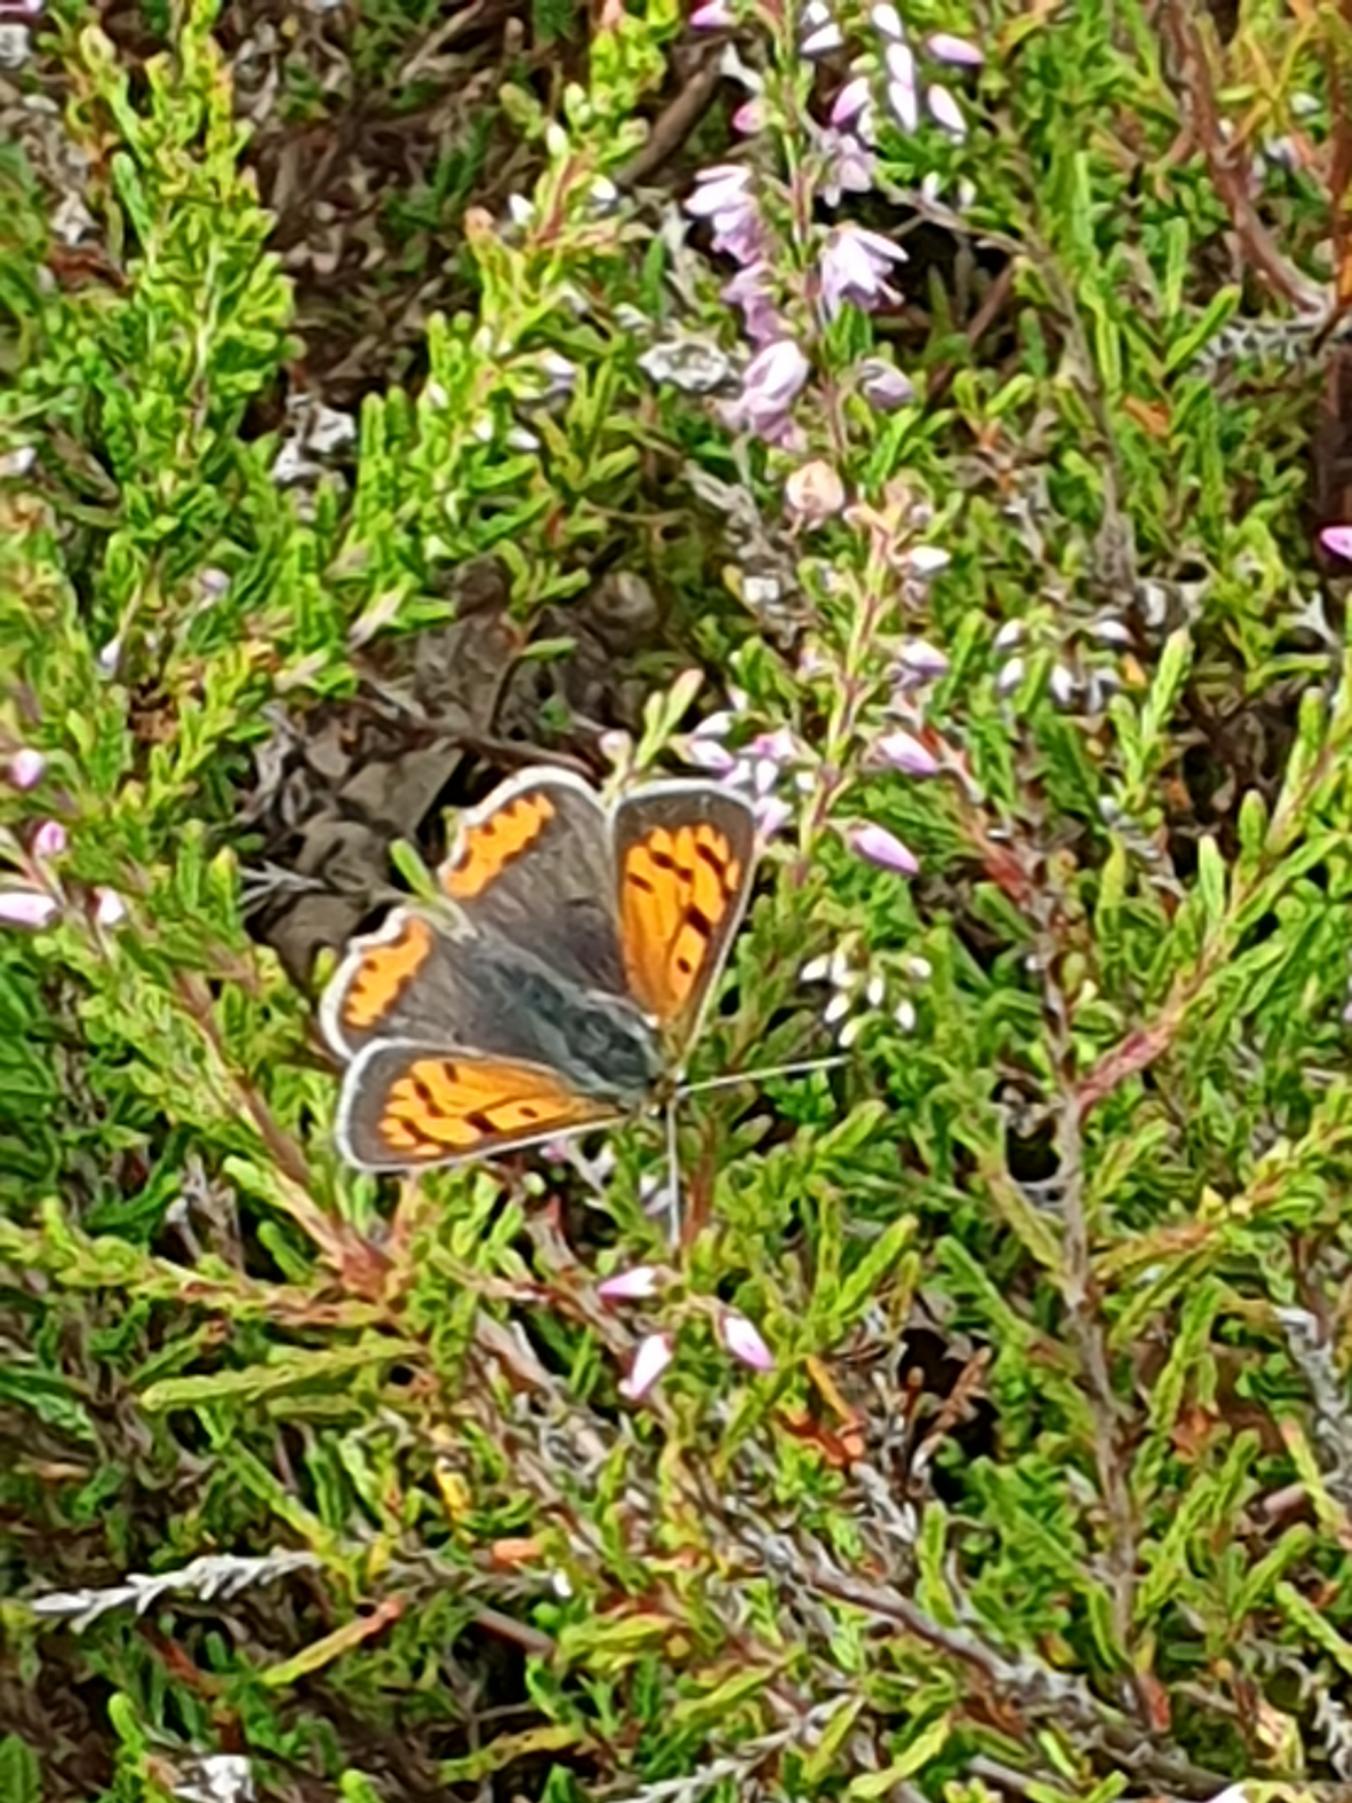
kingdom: Animalia
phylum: Arthropoda
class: Insecta
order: Lepidoptera
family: Lycaenidae
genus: Lycaena
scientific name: Lycaena phlaeas
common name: Lille ildfugl
